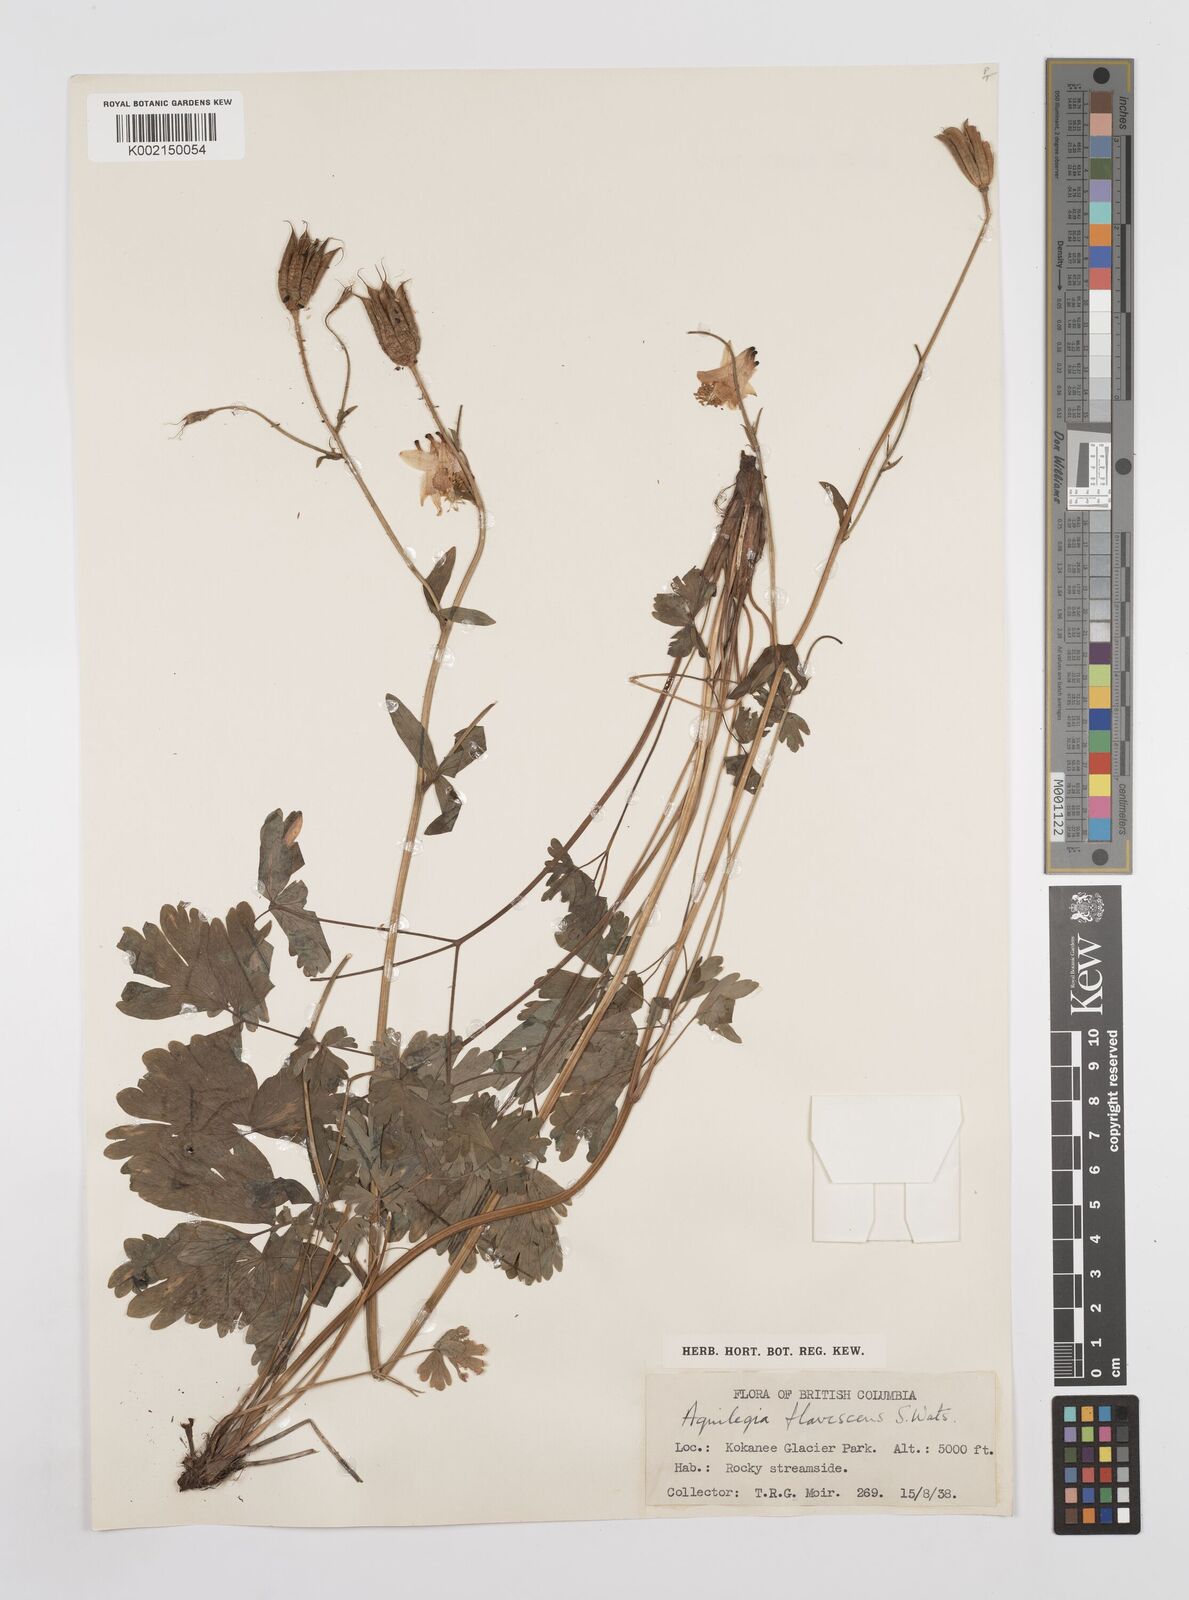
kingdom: Plantae
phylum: Tracheophyta
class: Magnoliopsida
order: Ranunculales
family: Ranunculaceae
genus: Aquilegia
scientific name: Aquilegia flavescens
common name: Yellow columbine
